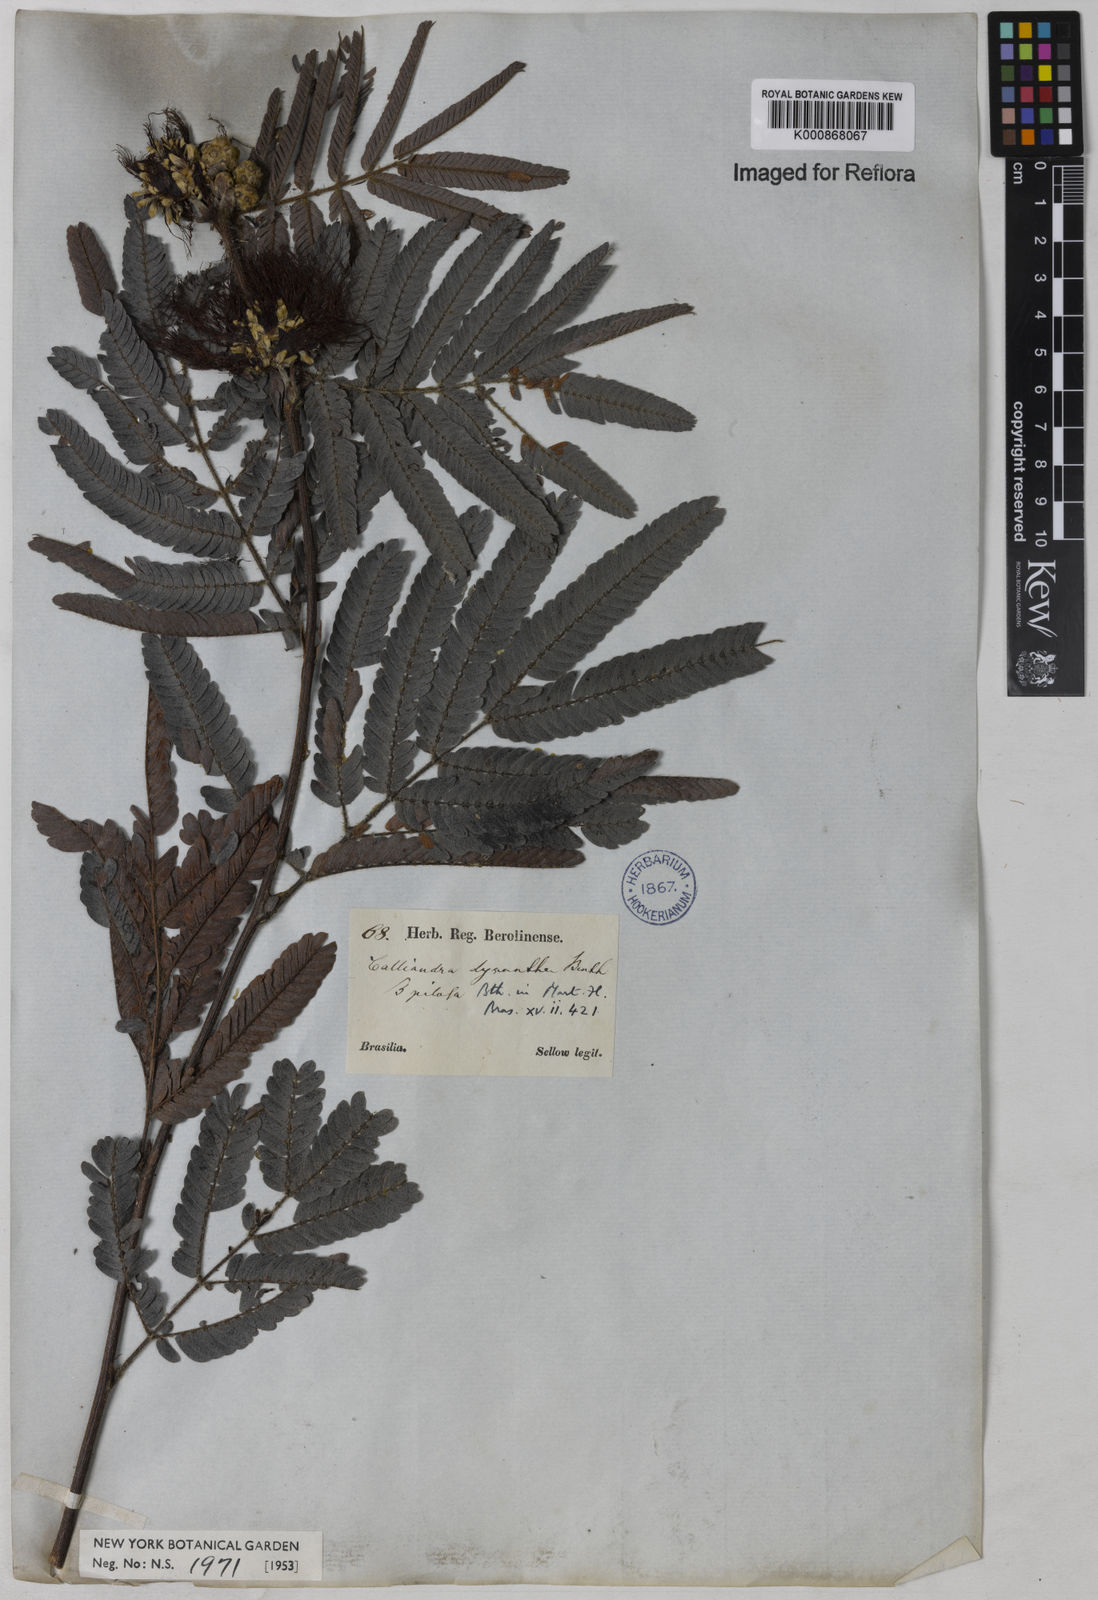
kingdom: Plantae
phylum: Tracheophyta
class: Magnoliopsida
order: Fabales
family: Fabaceae
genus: Calliandra
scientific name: Calliandra dysantha
